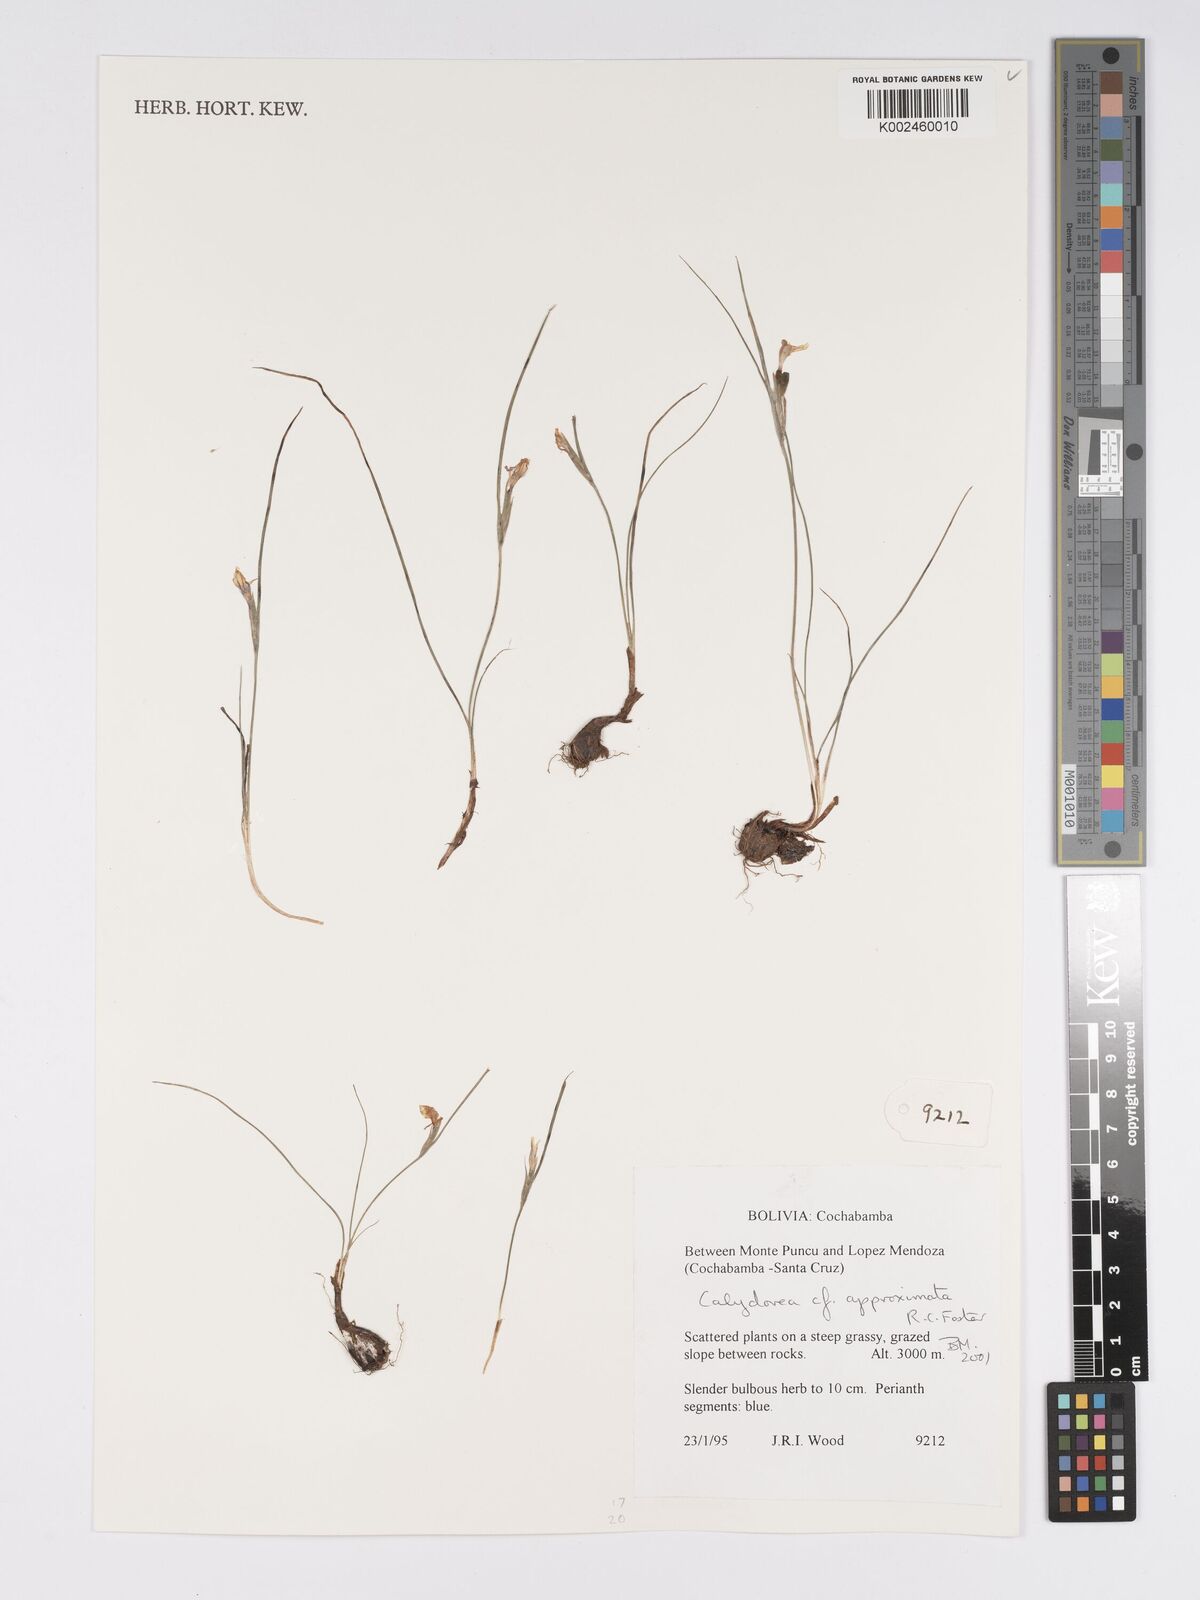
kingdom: Plantae
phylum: Tracheophyta
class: Liliopsida
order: Asparagales
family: Iridaceae
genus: Calydorea
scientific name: Calydorea approximata
